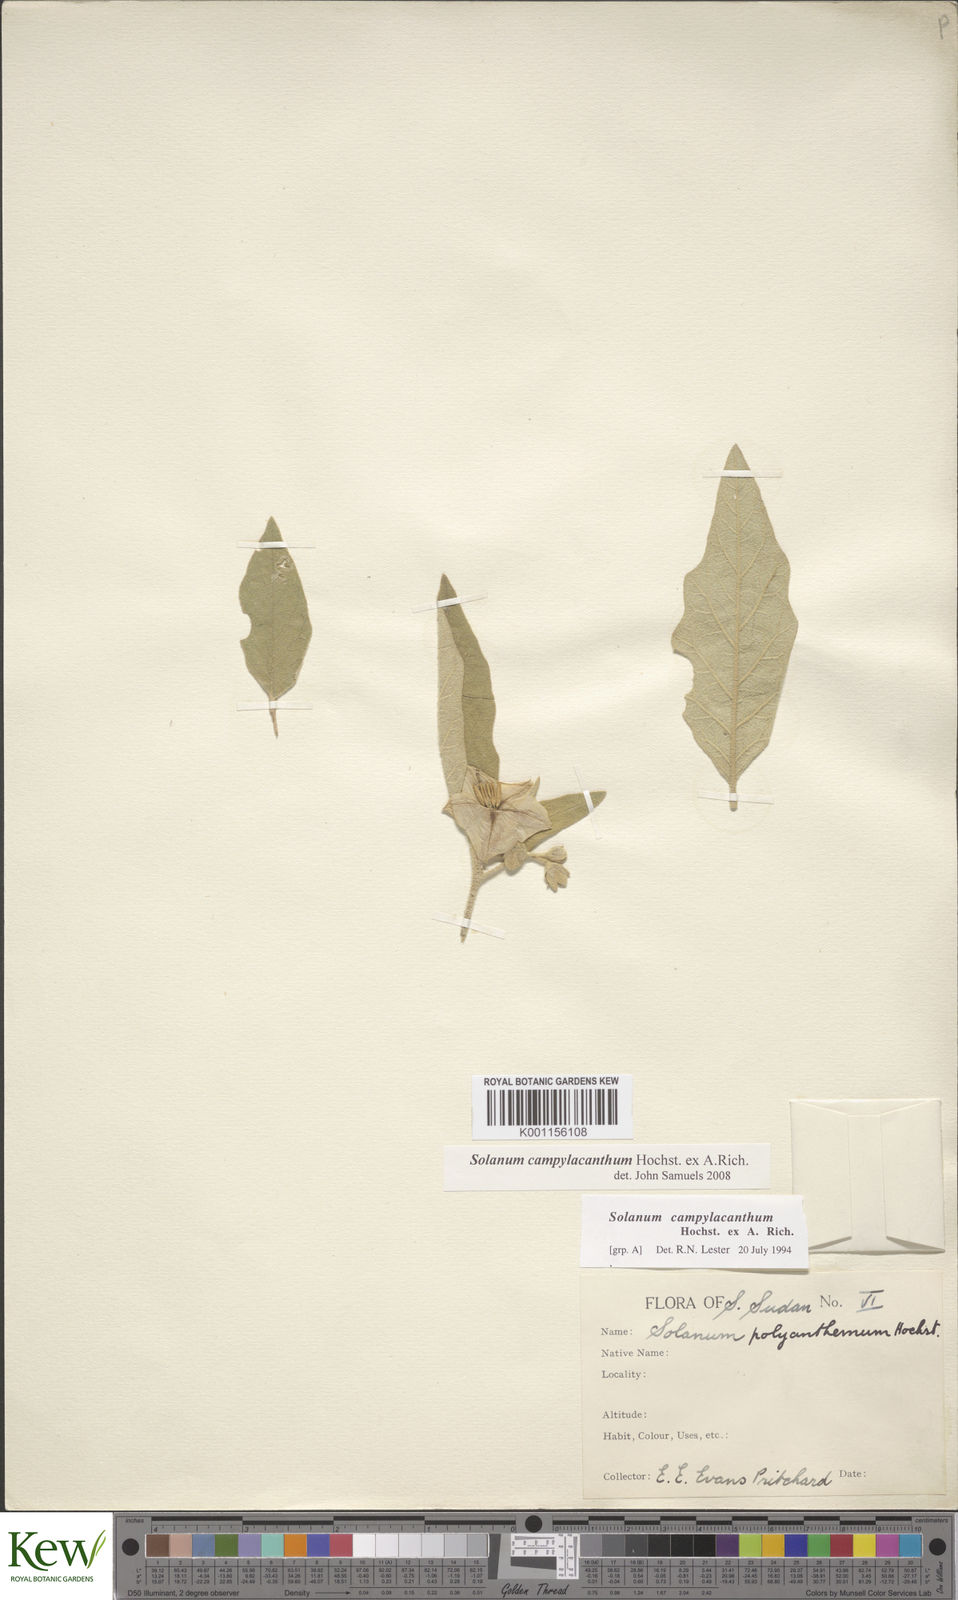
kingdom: Plantae
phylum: Tracheophyta
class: Magnoliopsida
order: Solanales
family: Solanaceae
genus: Solanum
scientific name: Solanum campylacanthum
